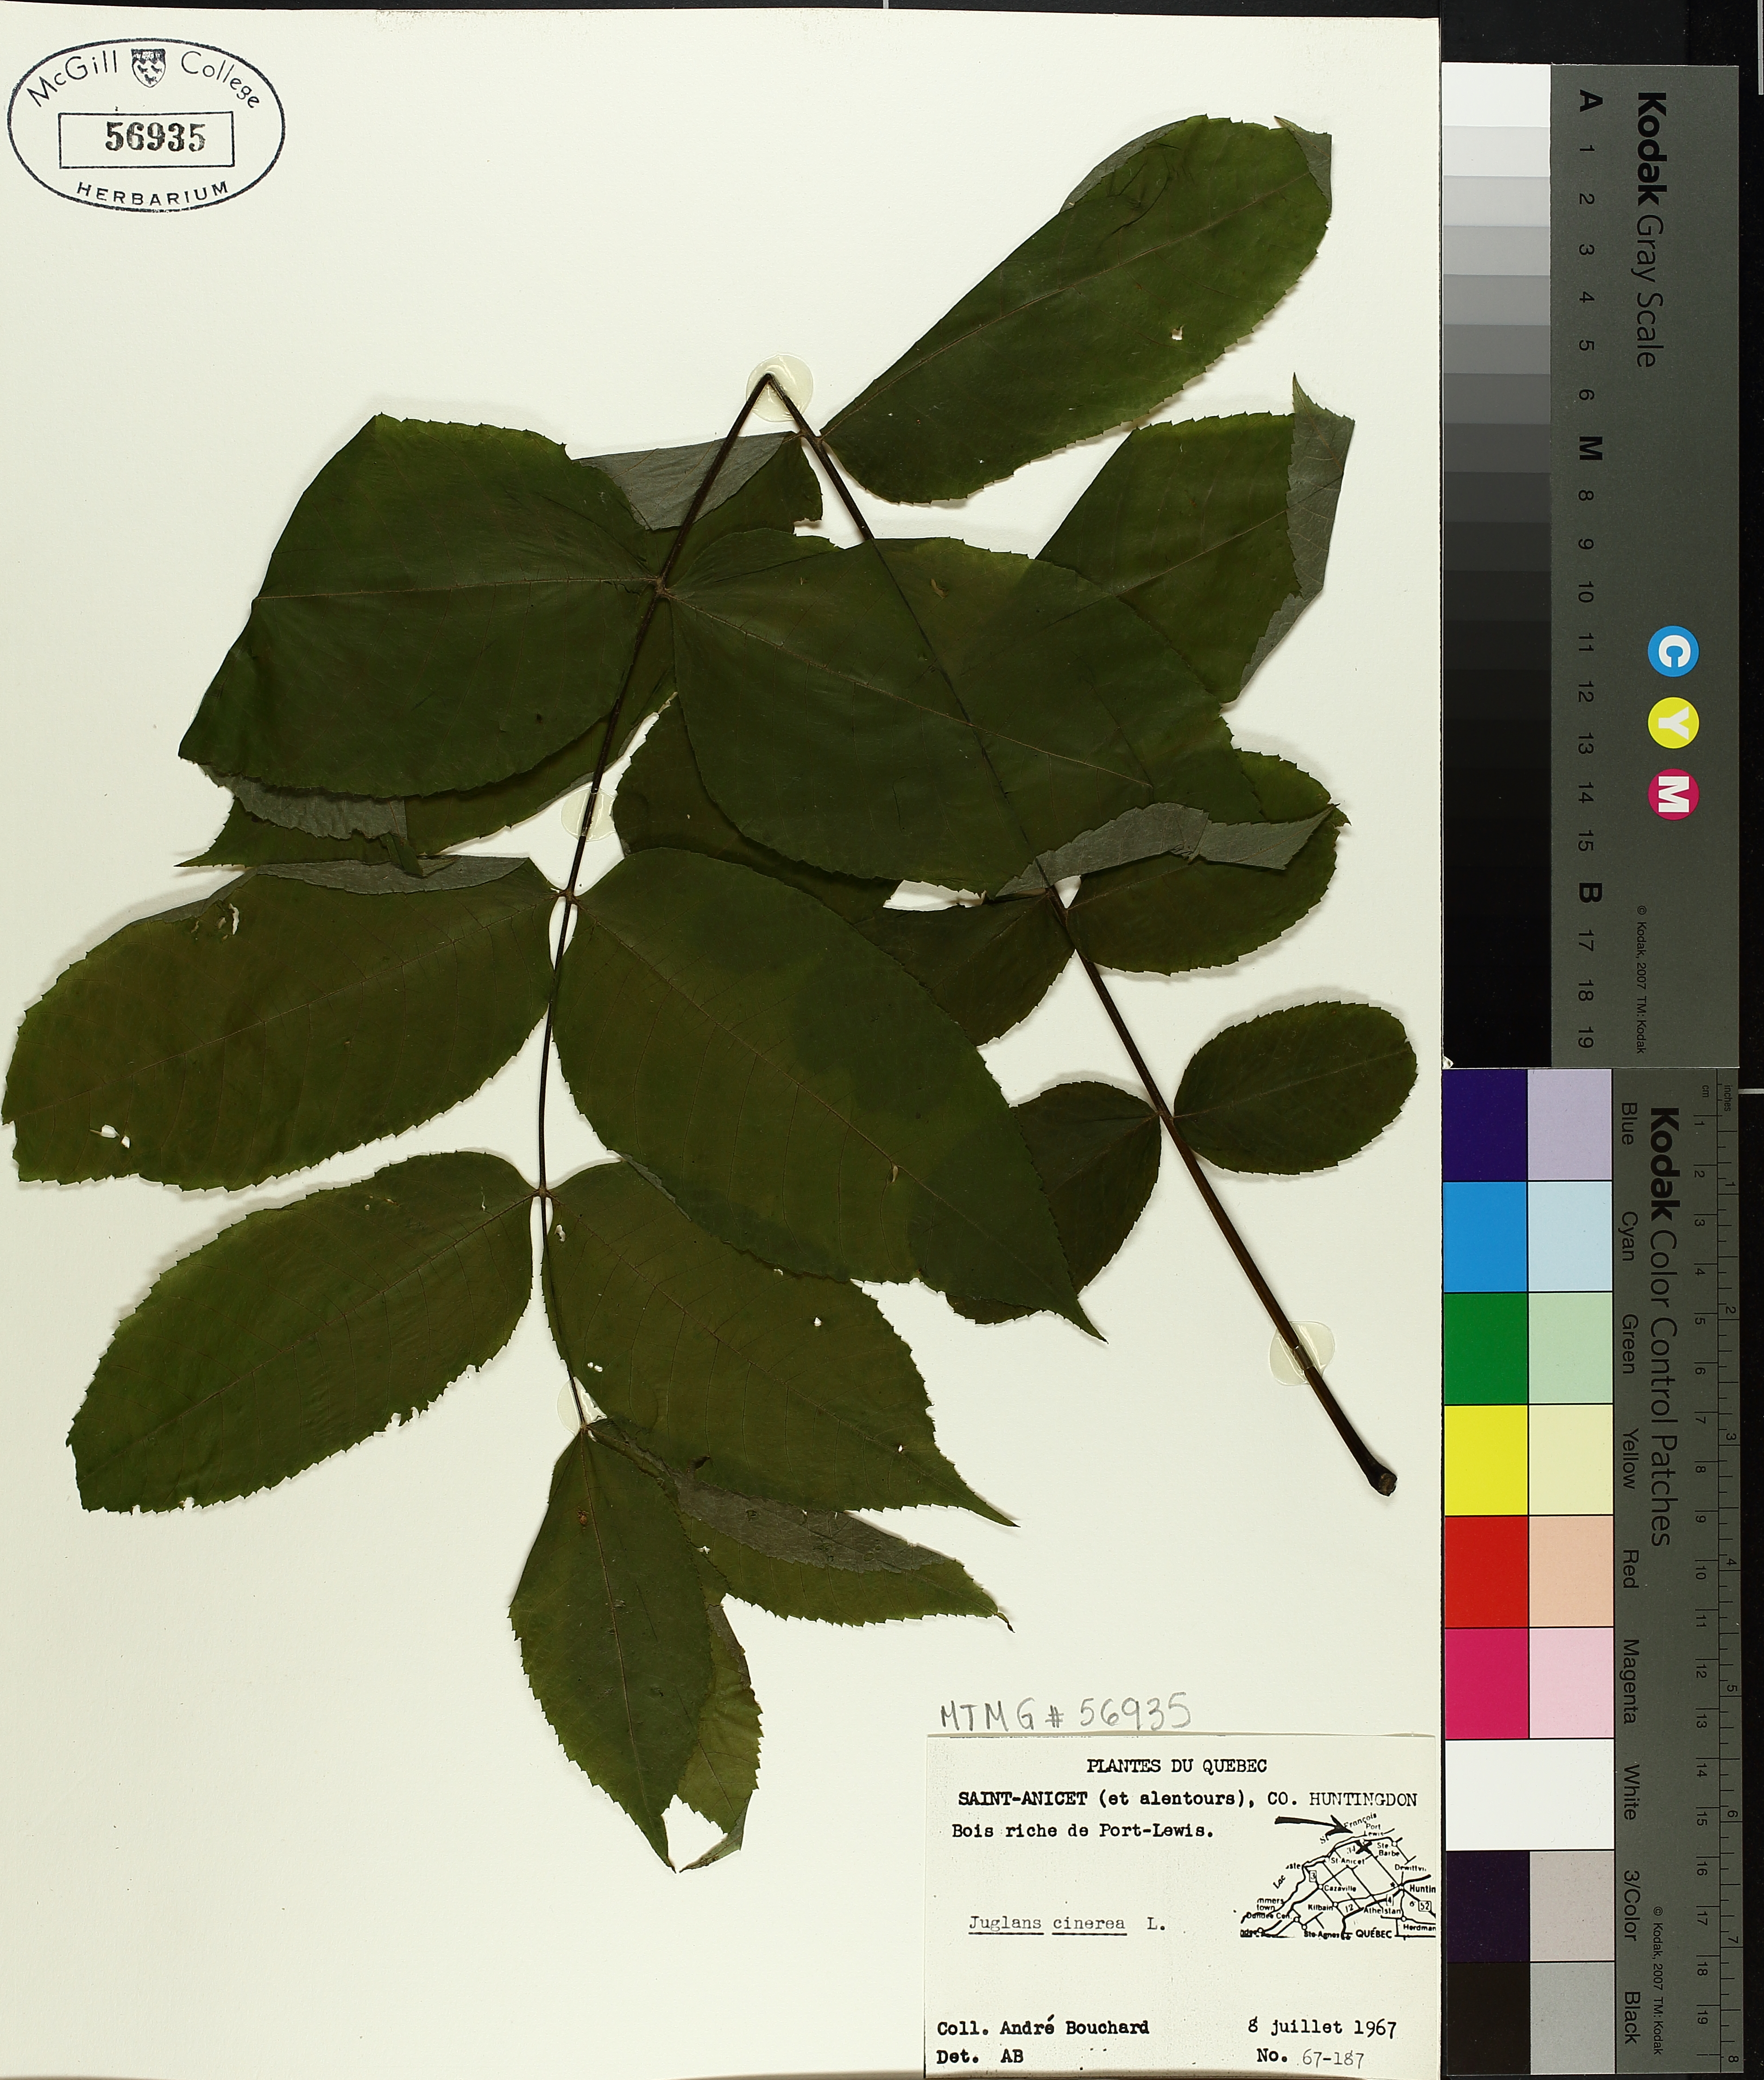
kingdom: Plantae
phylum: Tracheophyta
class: Magnoliopsida
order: Fagales
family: Juglandaceae
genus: Juglans
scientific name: Juglans cinerea
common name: Butternut
